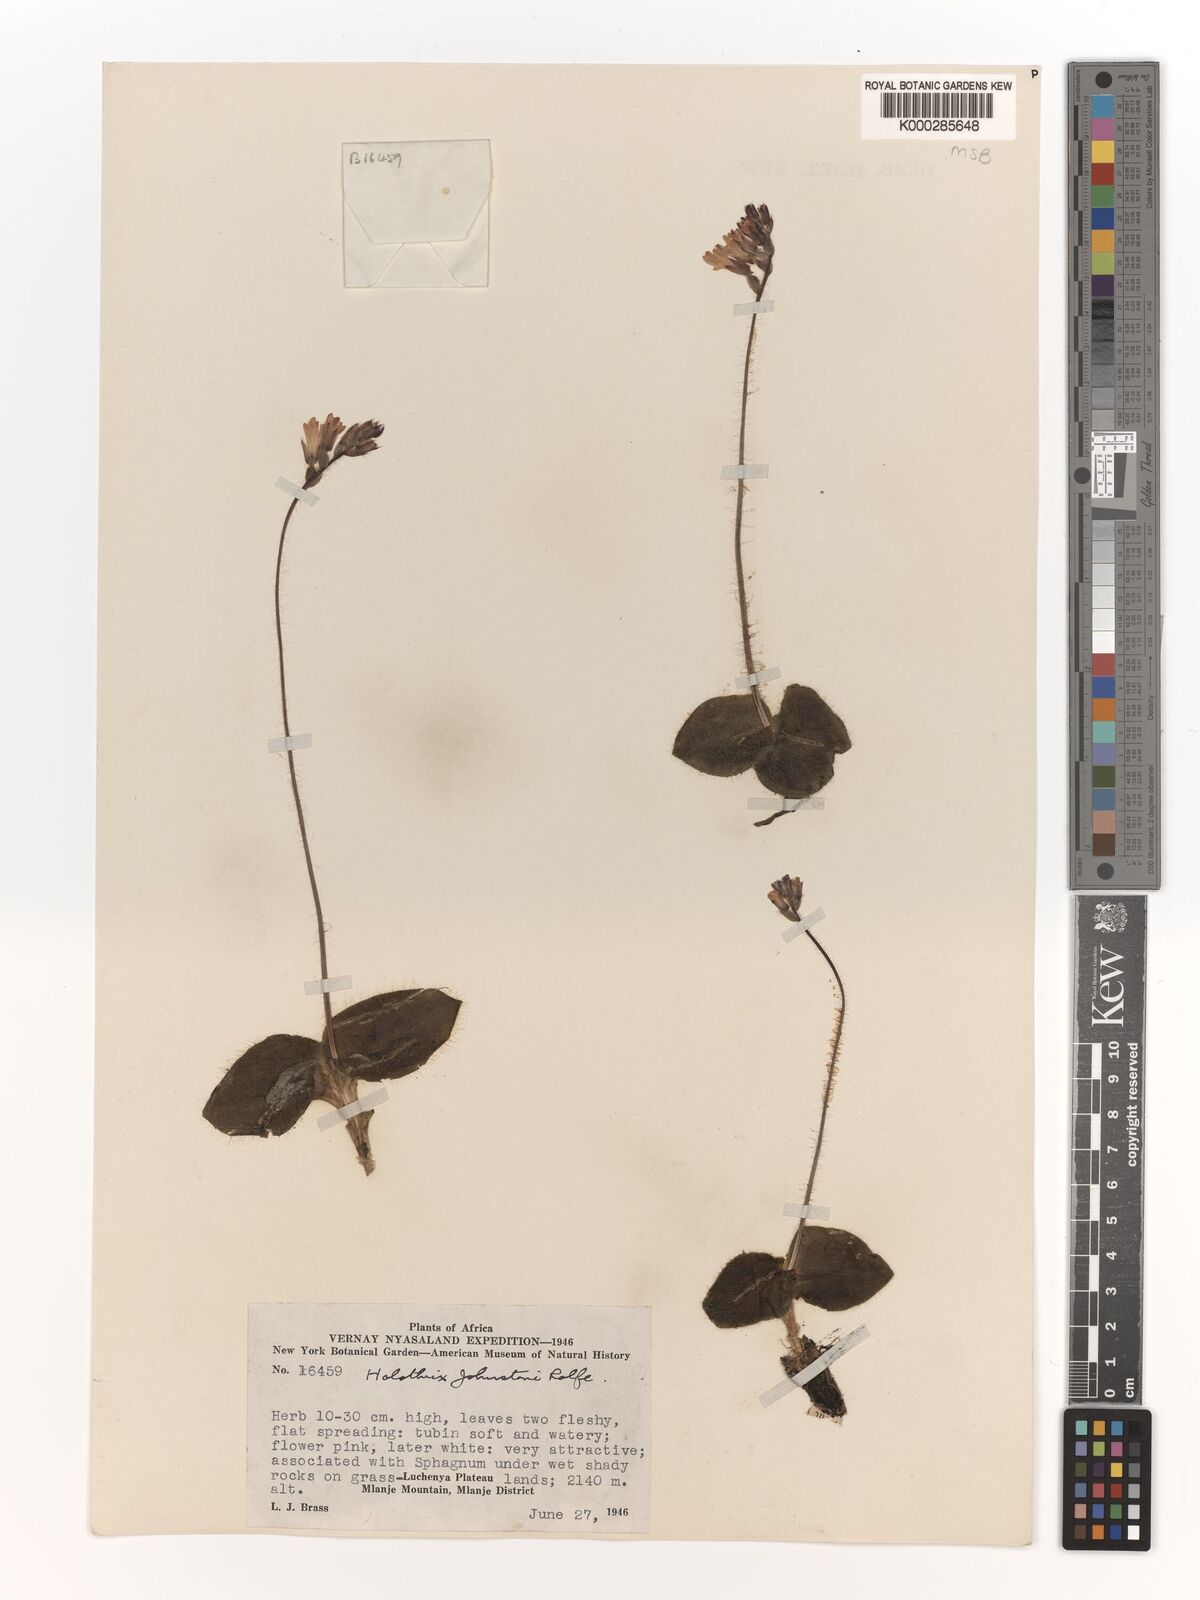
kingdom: Plantae
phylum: Tracheophyta
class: Liliopsida
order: Asparagales
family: Orchidaceae
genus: Holothrix
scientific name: Holothrix johnstonii
